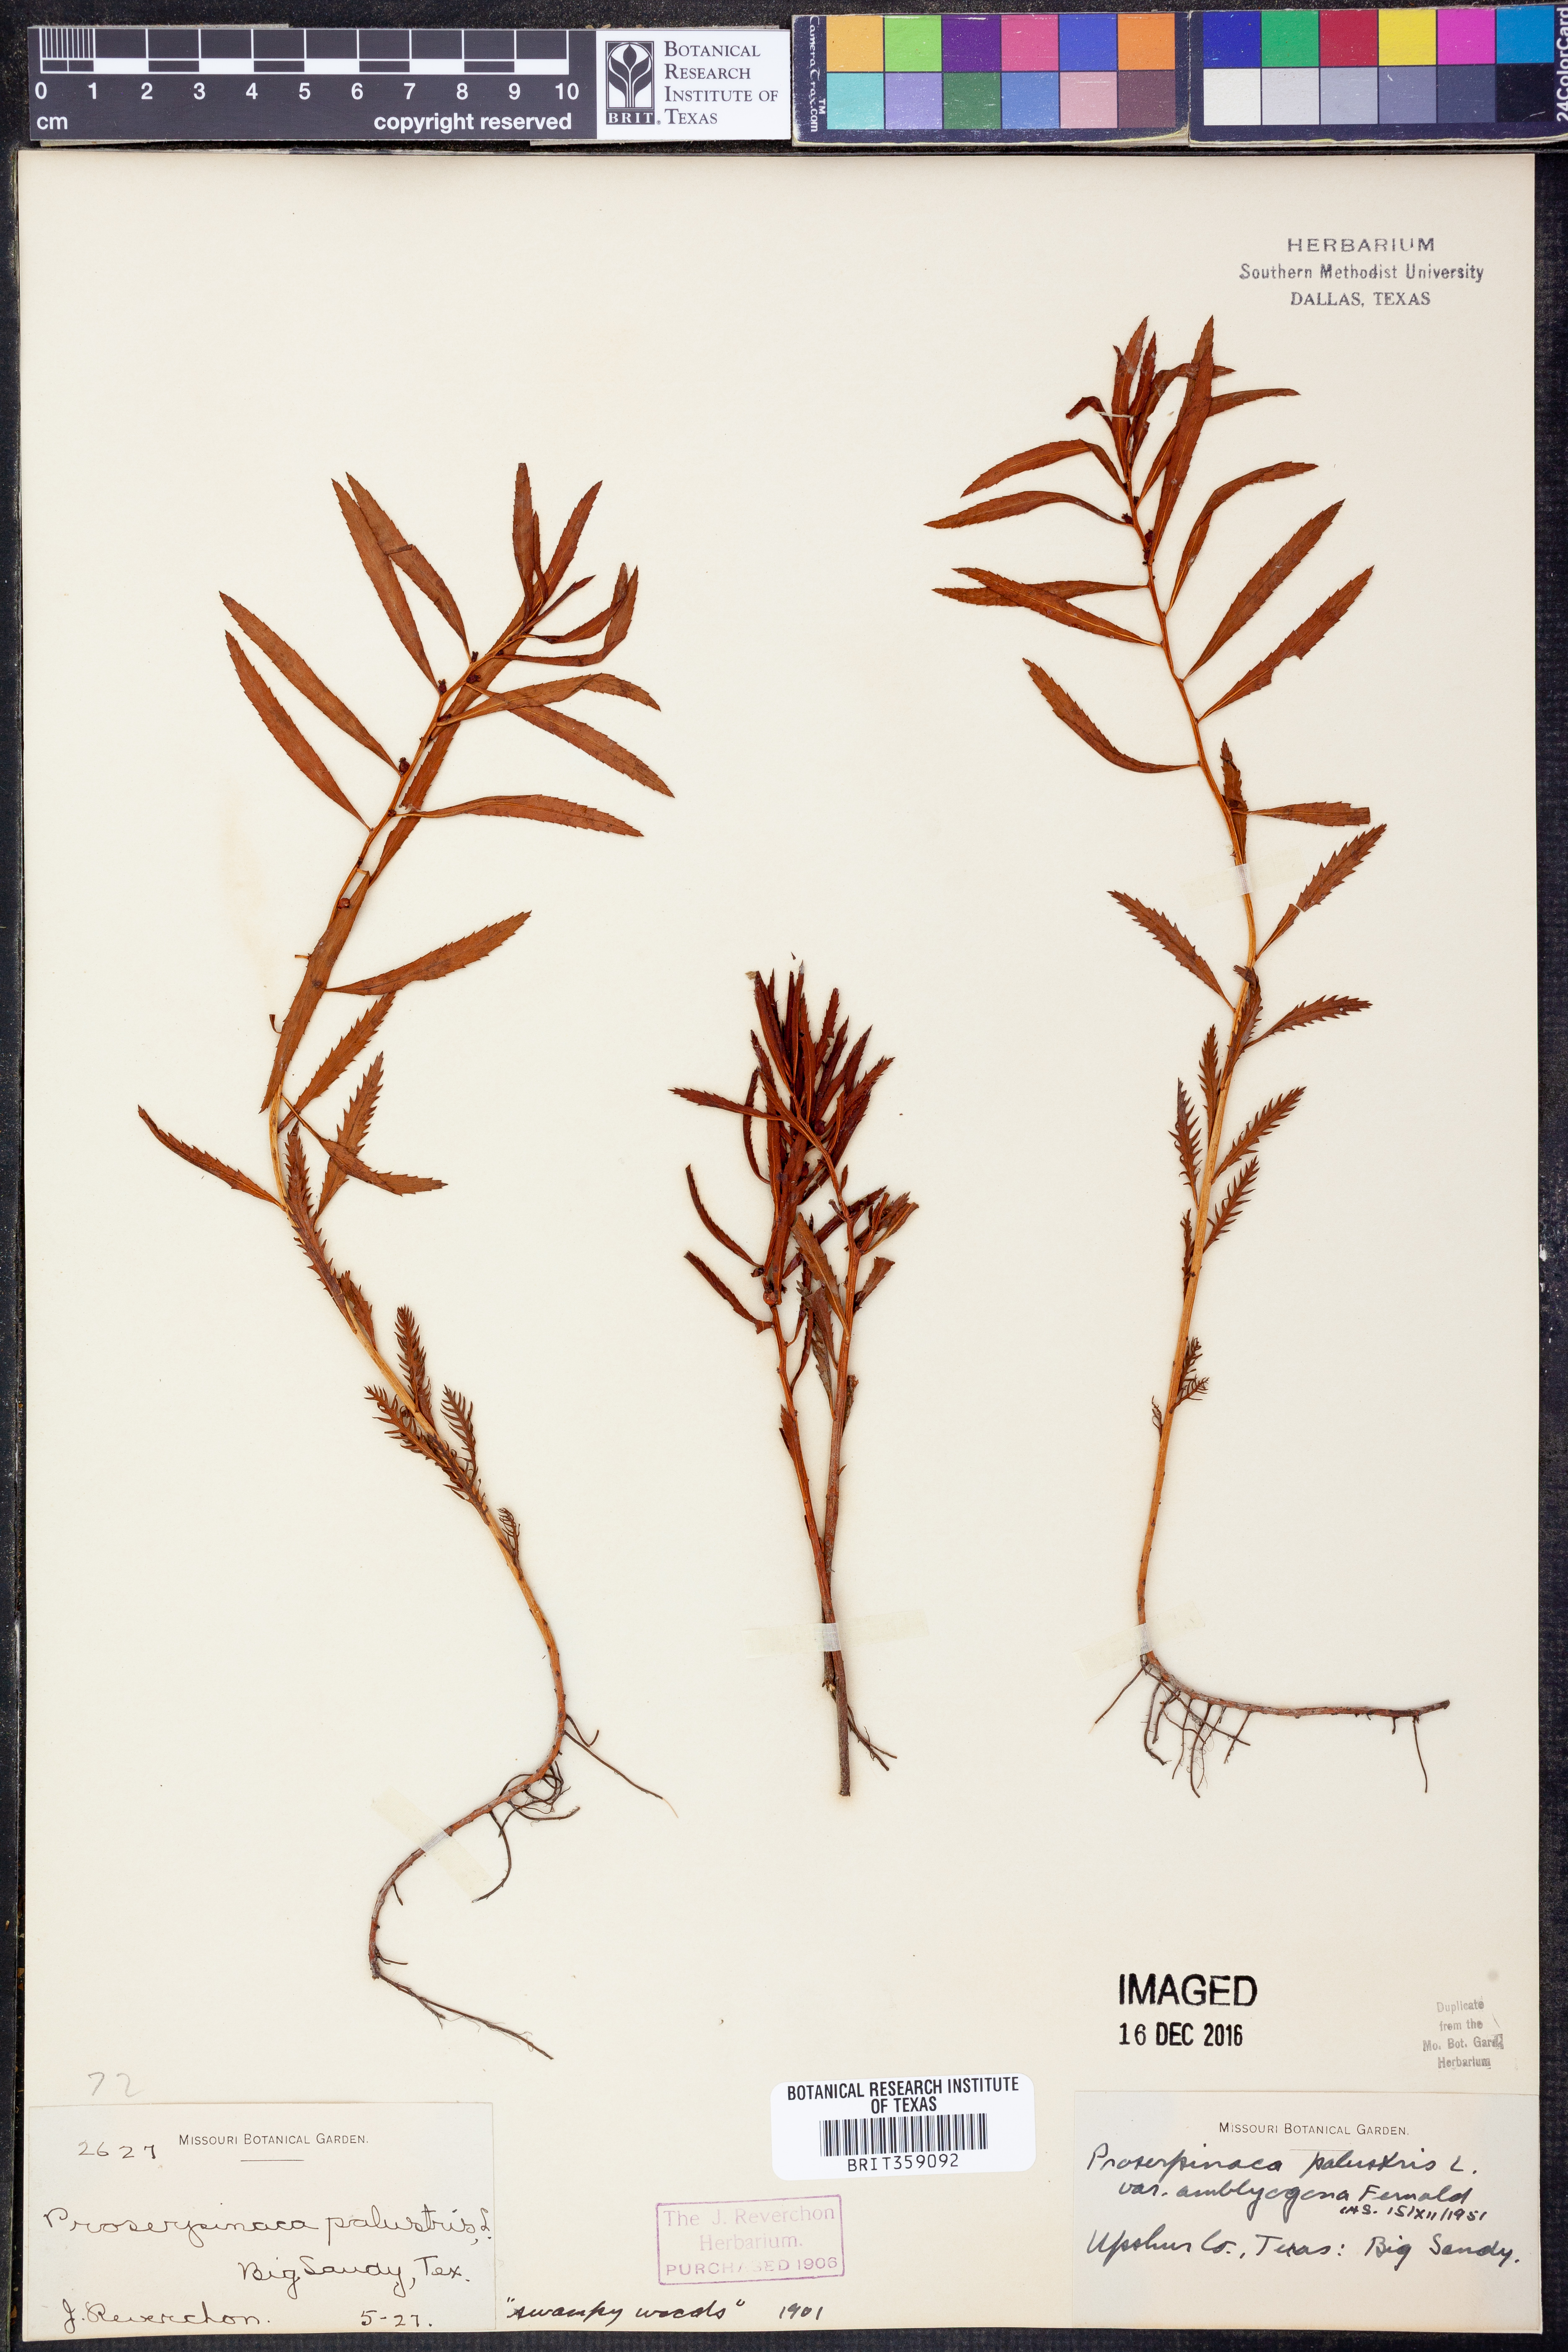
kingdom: Plantae
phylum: Tracheophyta
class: Magnoliopsida
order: Saxifragales
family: Haloragaceae
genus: Proserpinaca
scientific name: Proserpinaca palustris
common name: Marsh mermaidweed
